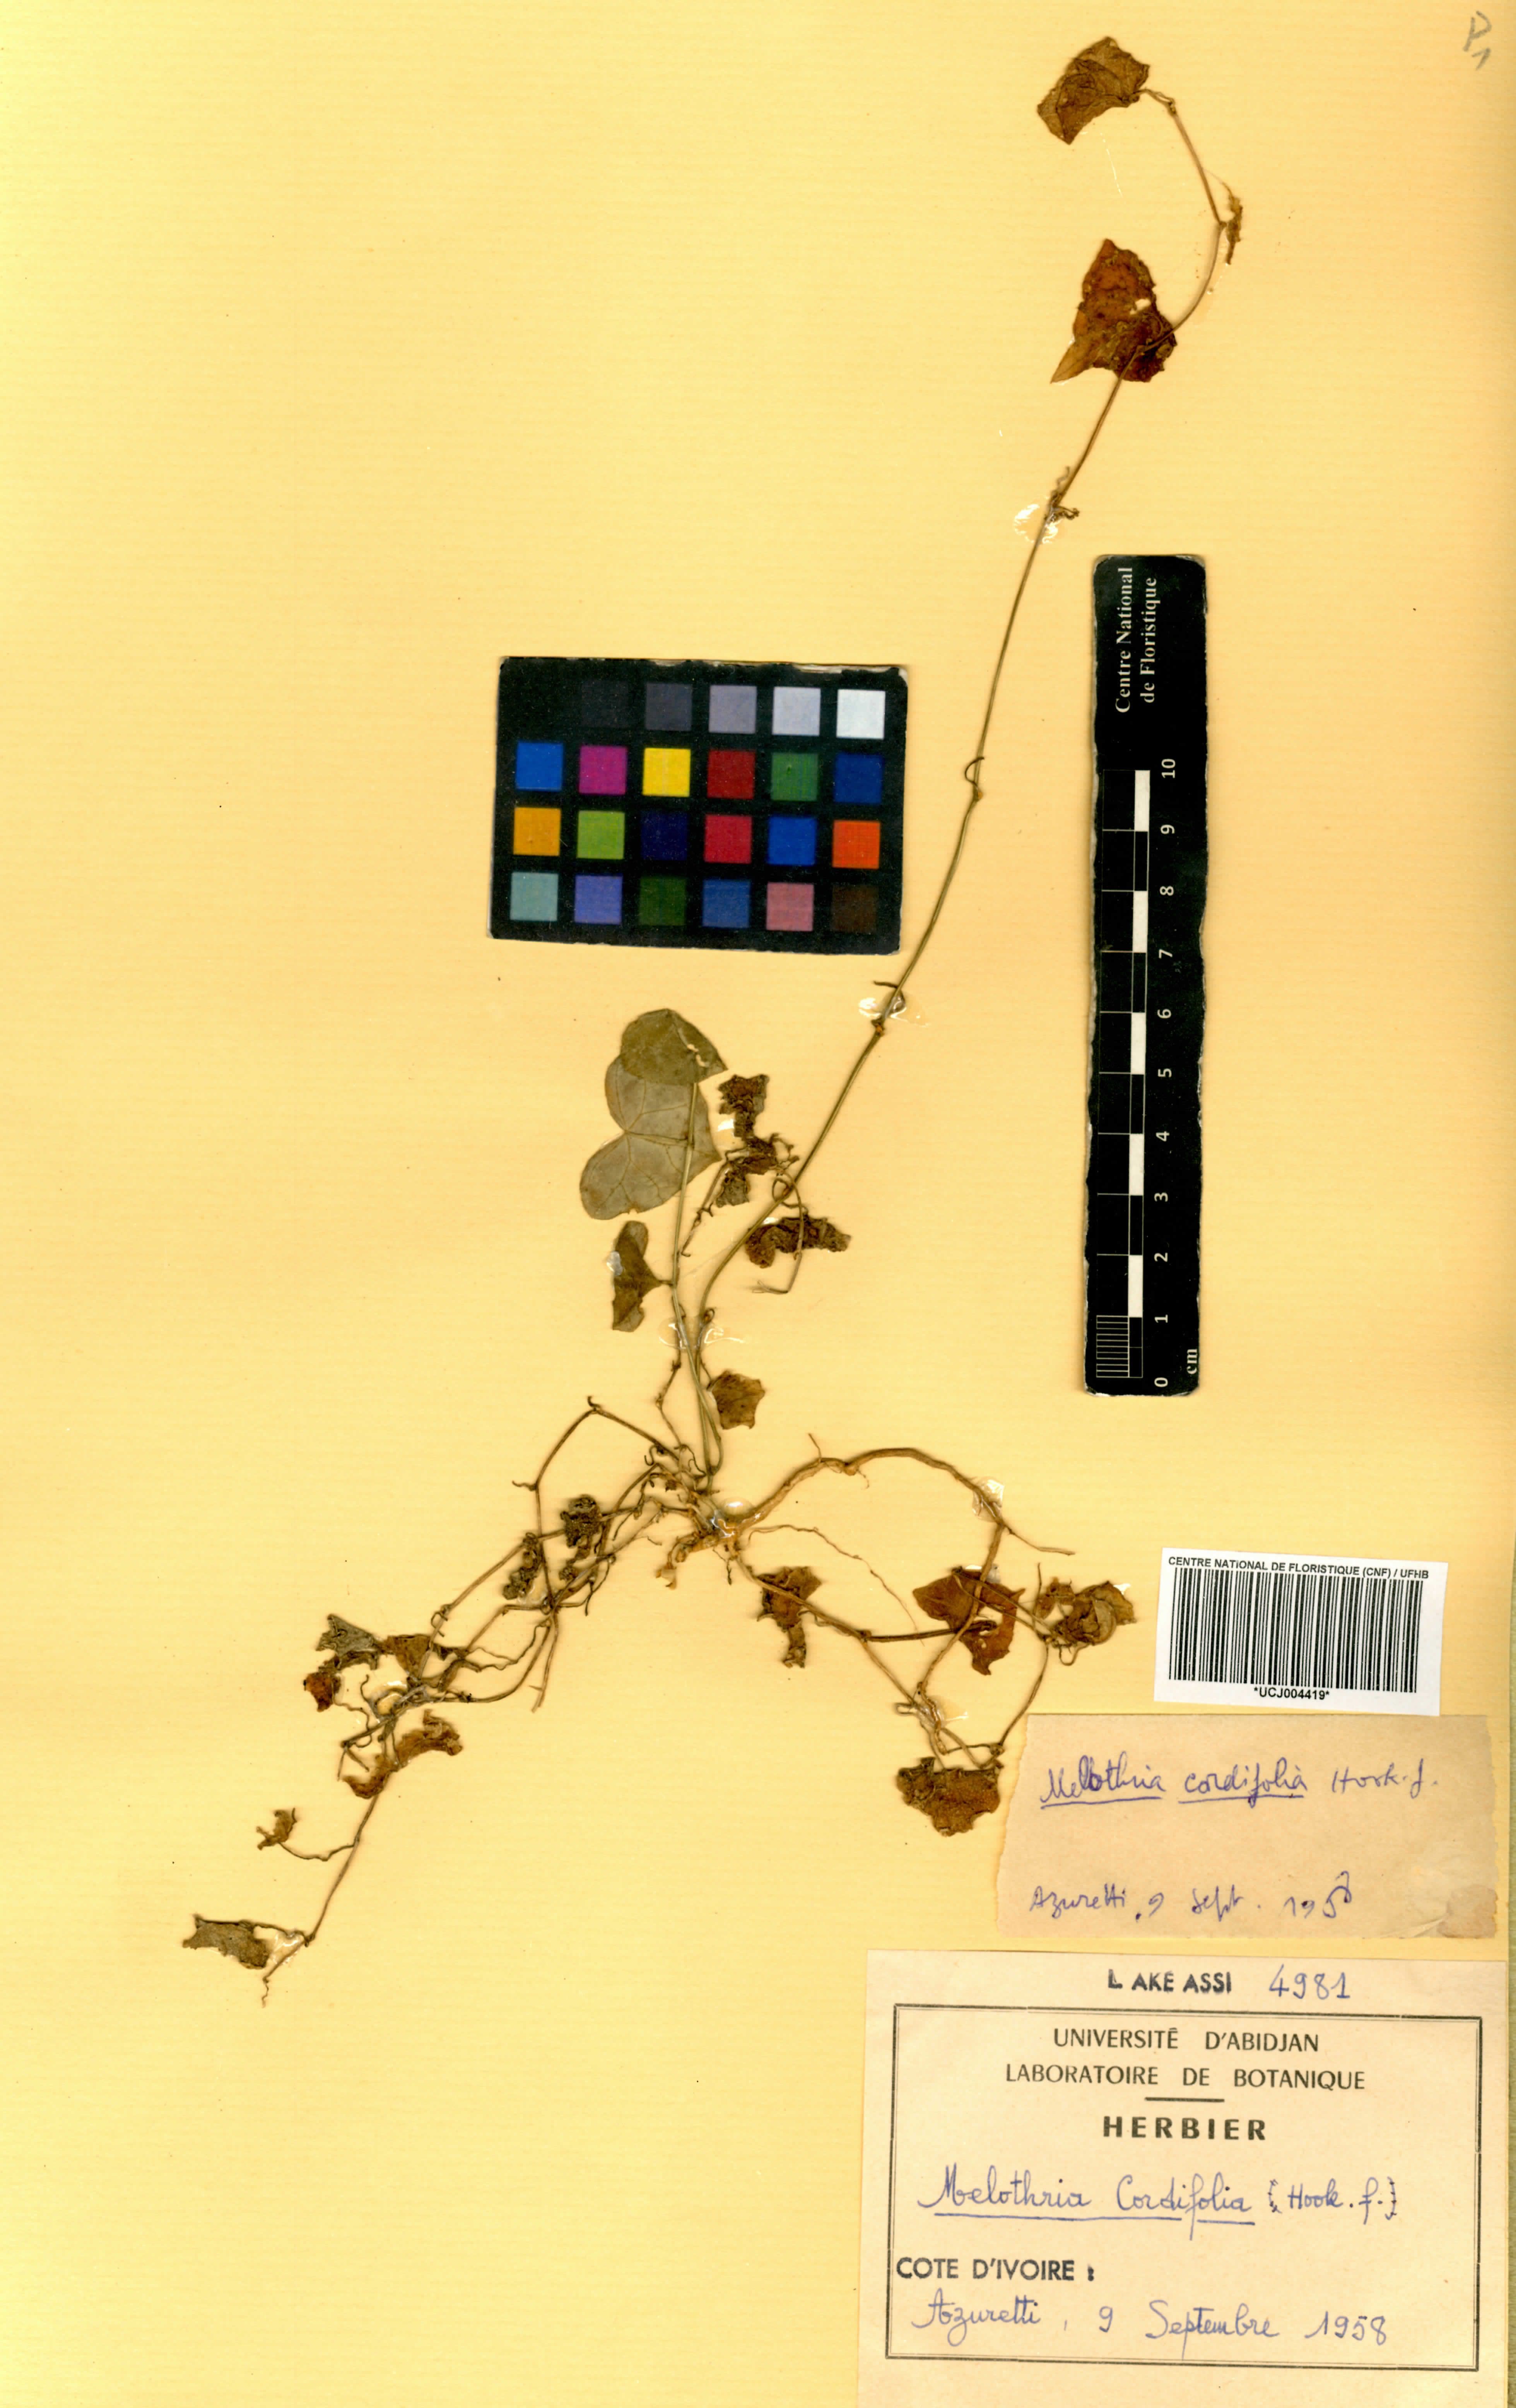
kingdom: Plantae
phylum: Tracheophyta
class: Magnoliopsida
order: Cucurbitales
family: Cucurbitaceae
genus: Zehneria
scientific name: Zehneria gilletii
